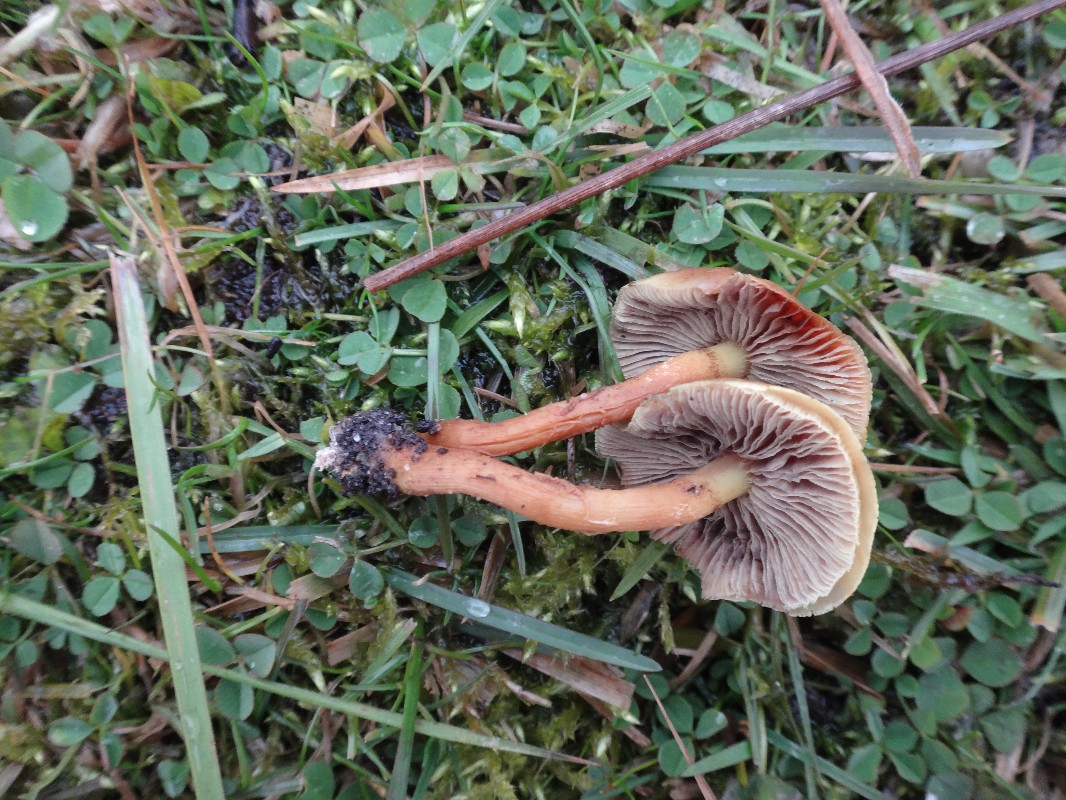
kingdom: Fungi
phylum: Basidiomycota
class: Agaricomycetes
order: Agaricales
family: Strophariaceae
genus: Hypholoma
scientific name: Hypholoma fasciculare
